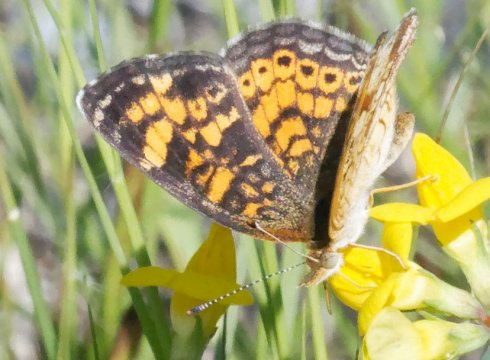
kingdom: Animalia
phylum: Arthropoda
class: Insecta
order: Lepidoptera
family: Nymphalidae
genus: Phyciodes
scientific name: Phyciodes tharos
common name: Pearl Crescent
